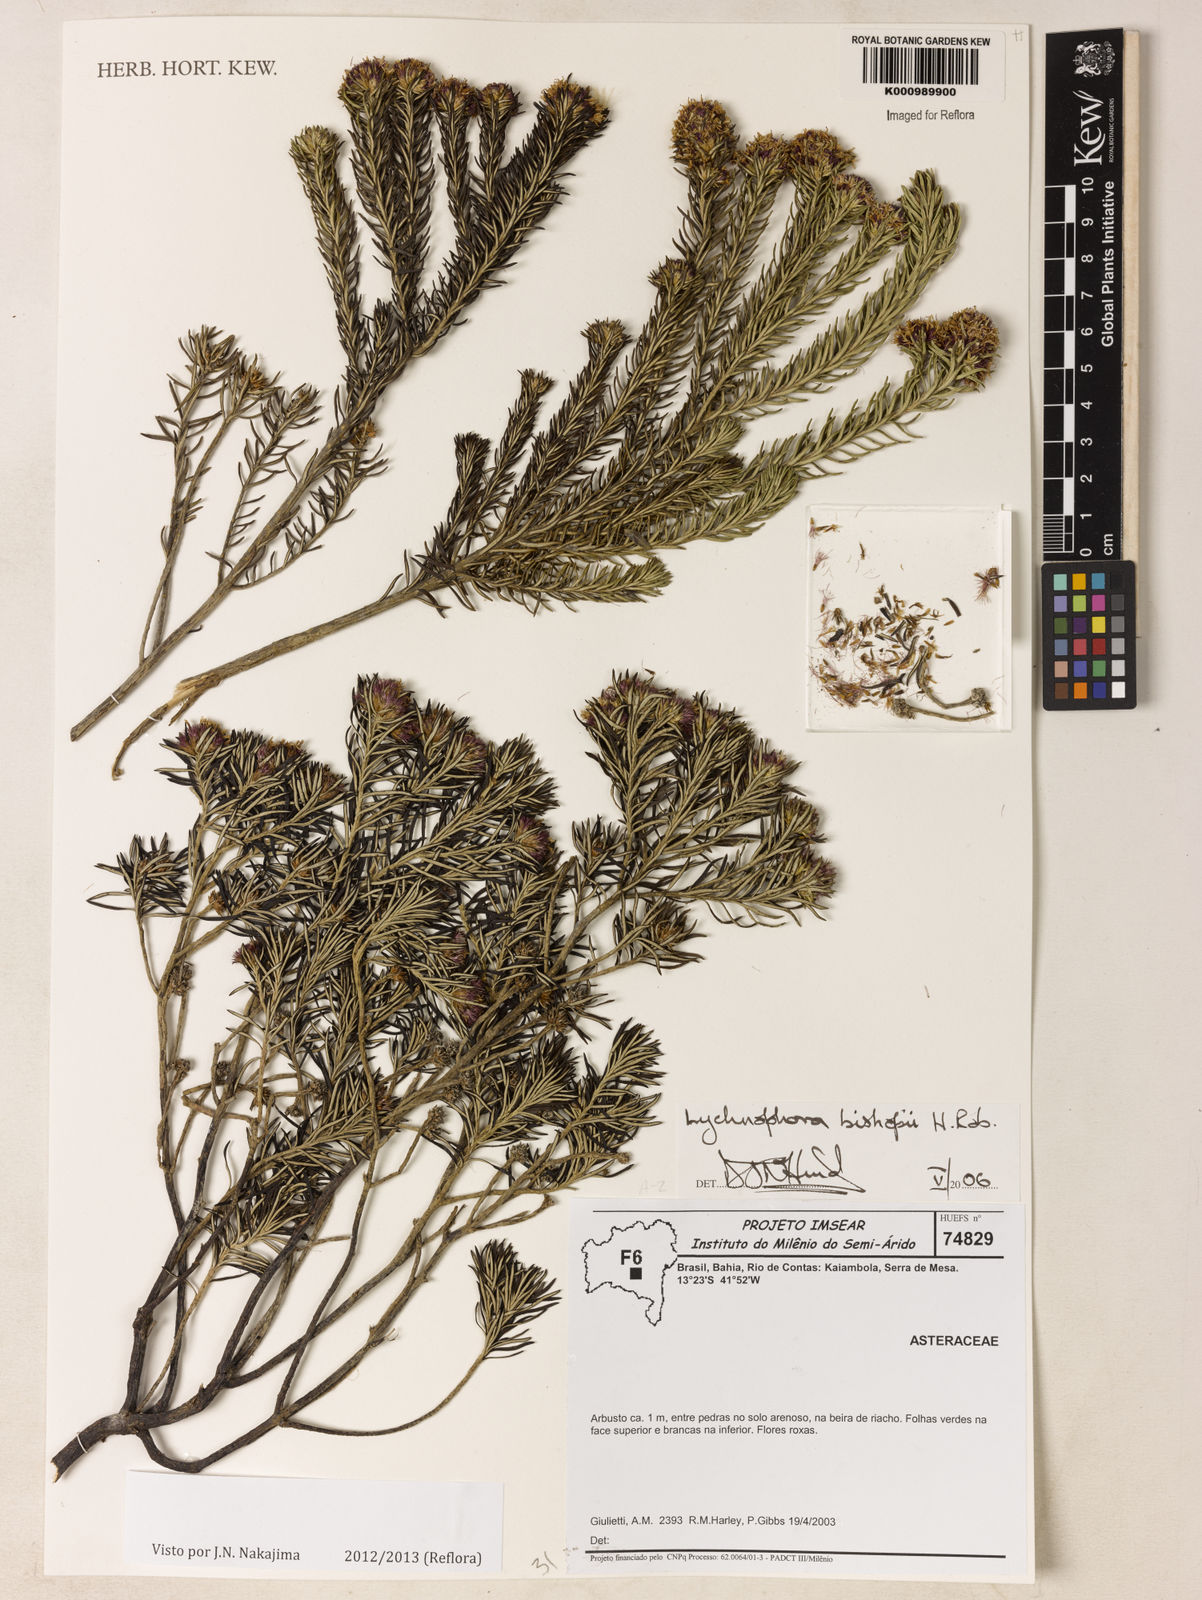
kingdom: Plantae
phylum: Tracheophyta
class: Magnoliopsida
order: Asterales
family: Asteraceae
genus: Lychnophorella
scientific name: Lychnophorella bishopii
